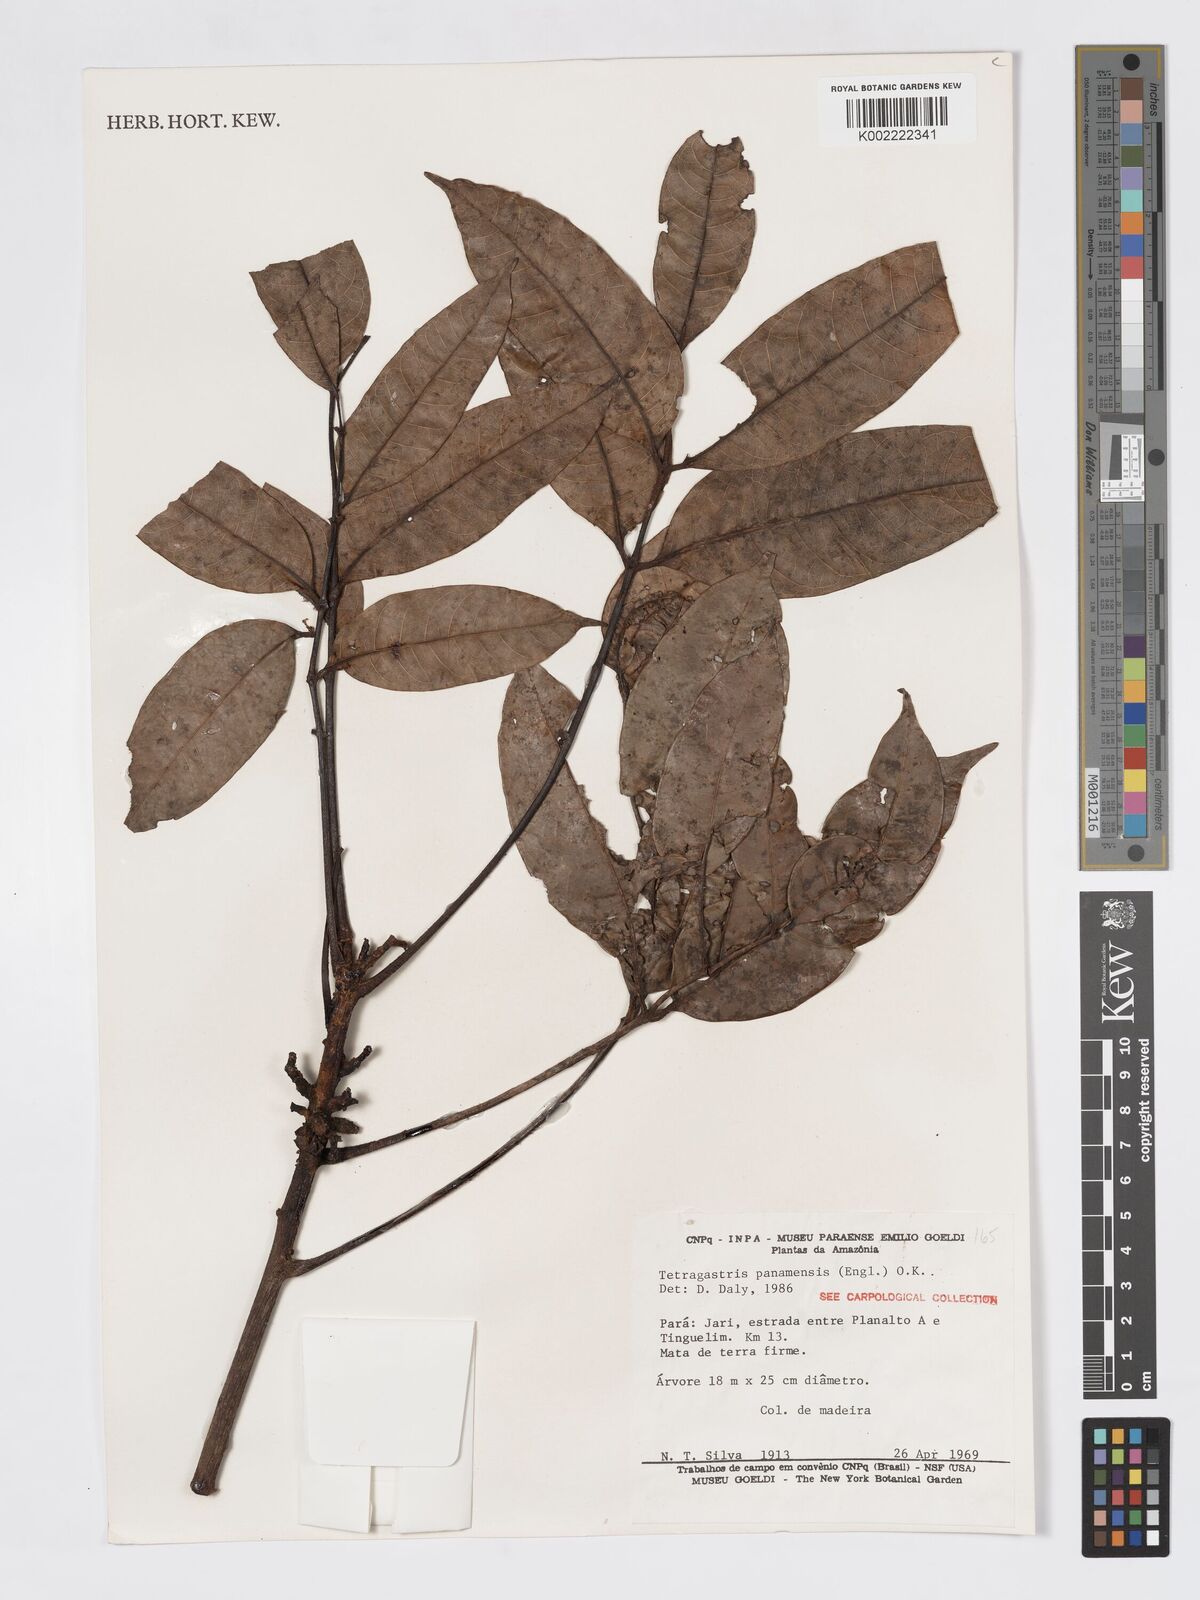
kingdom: Plantae
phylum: Tracheophyta
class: Magnoliopsida
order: Sapindales
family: Burseraceae
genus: Tetragastris
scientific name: Tetragastris panamensis
